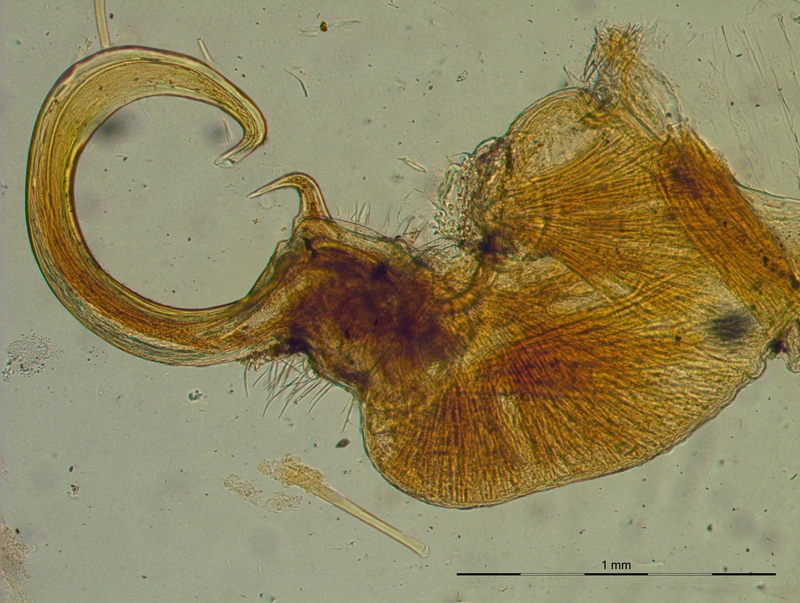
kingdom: Animalia
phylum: Arthropoda
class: Diplopoda
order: Polydesmida
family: Xystodesmidae
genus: Riukiaria
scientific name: Riukiaria
